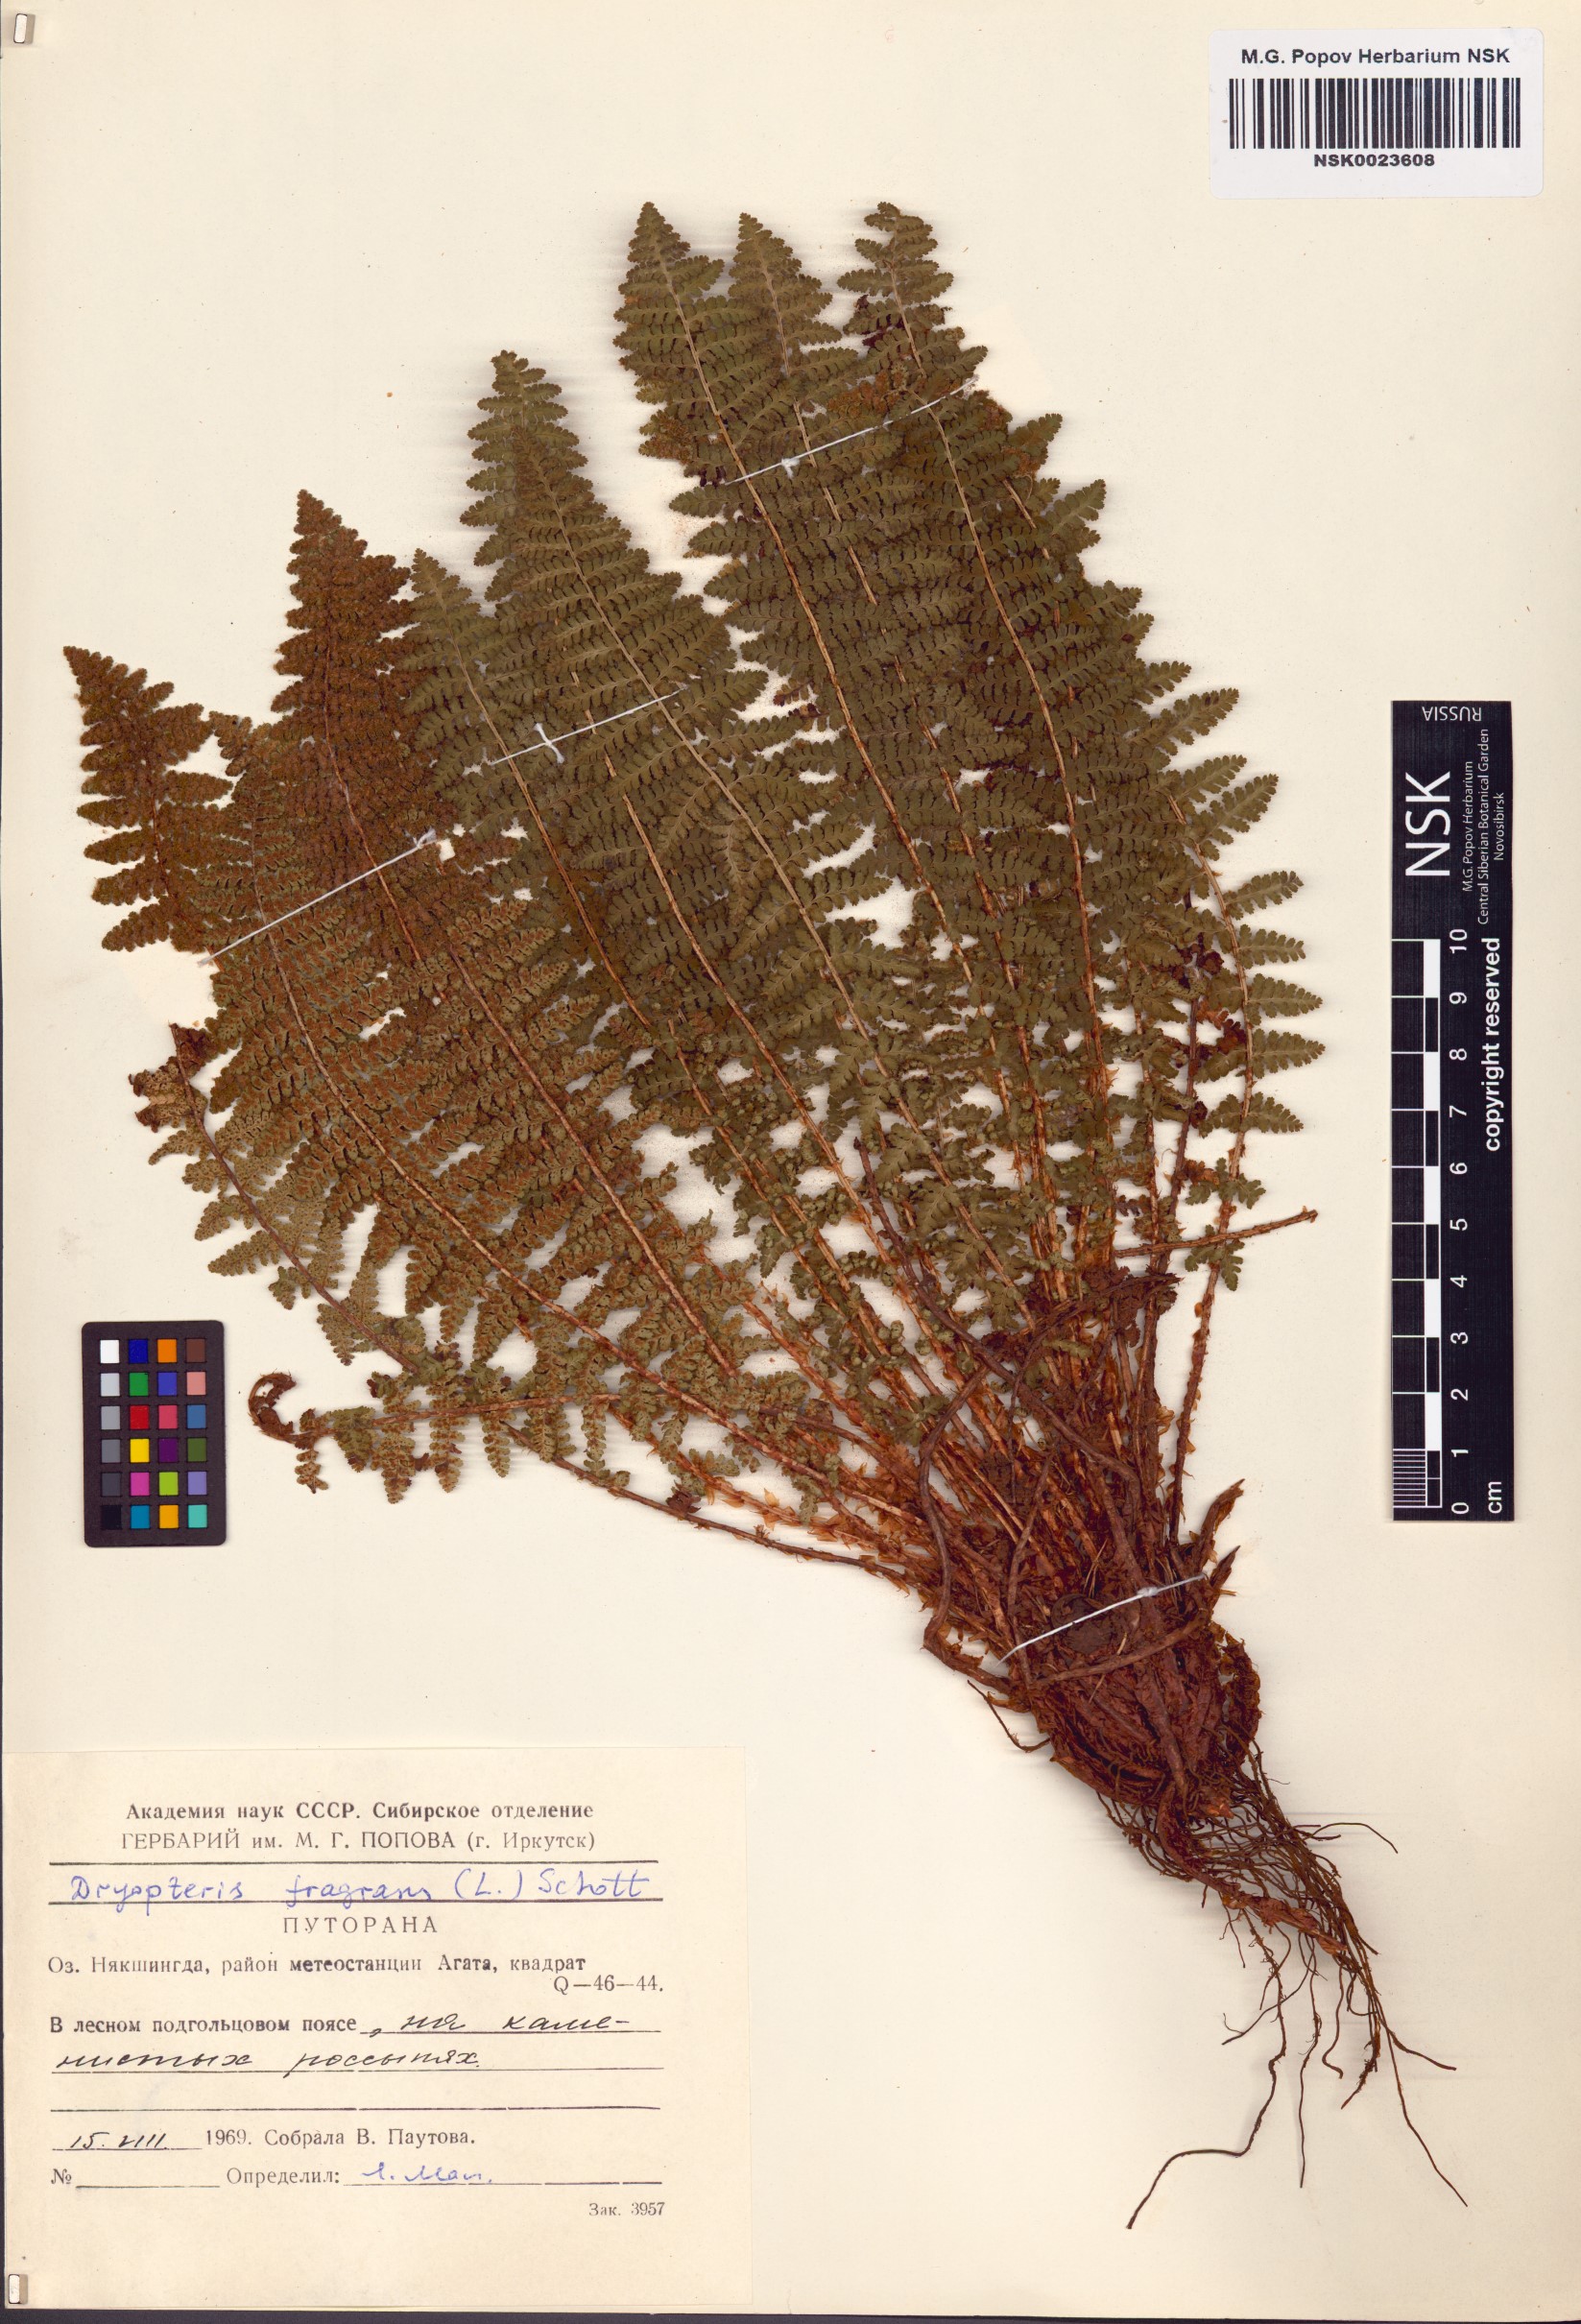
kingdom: Plantae
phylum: Tracheophyta
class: Polypodiopsida
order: Polypodiales
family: Dryopteridaceae
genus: Dryopteris
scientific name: Dryopteris fragrans
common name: Fragrant wood fern
